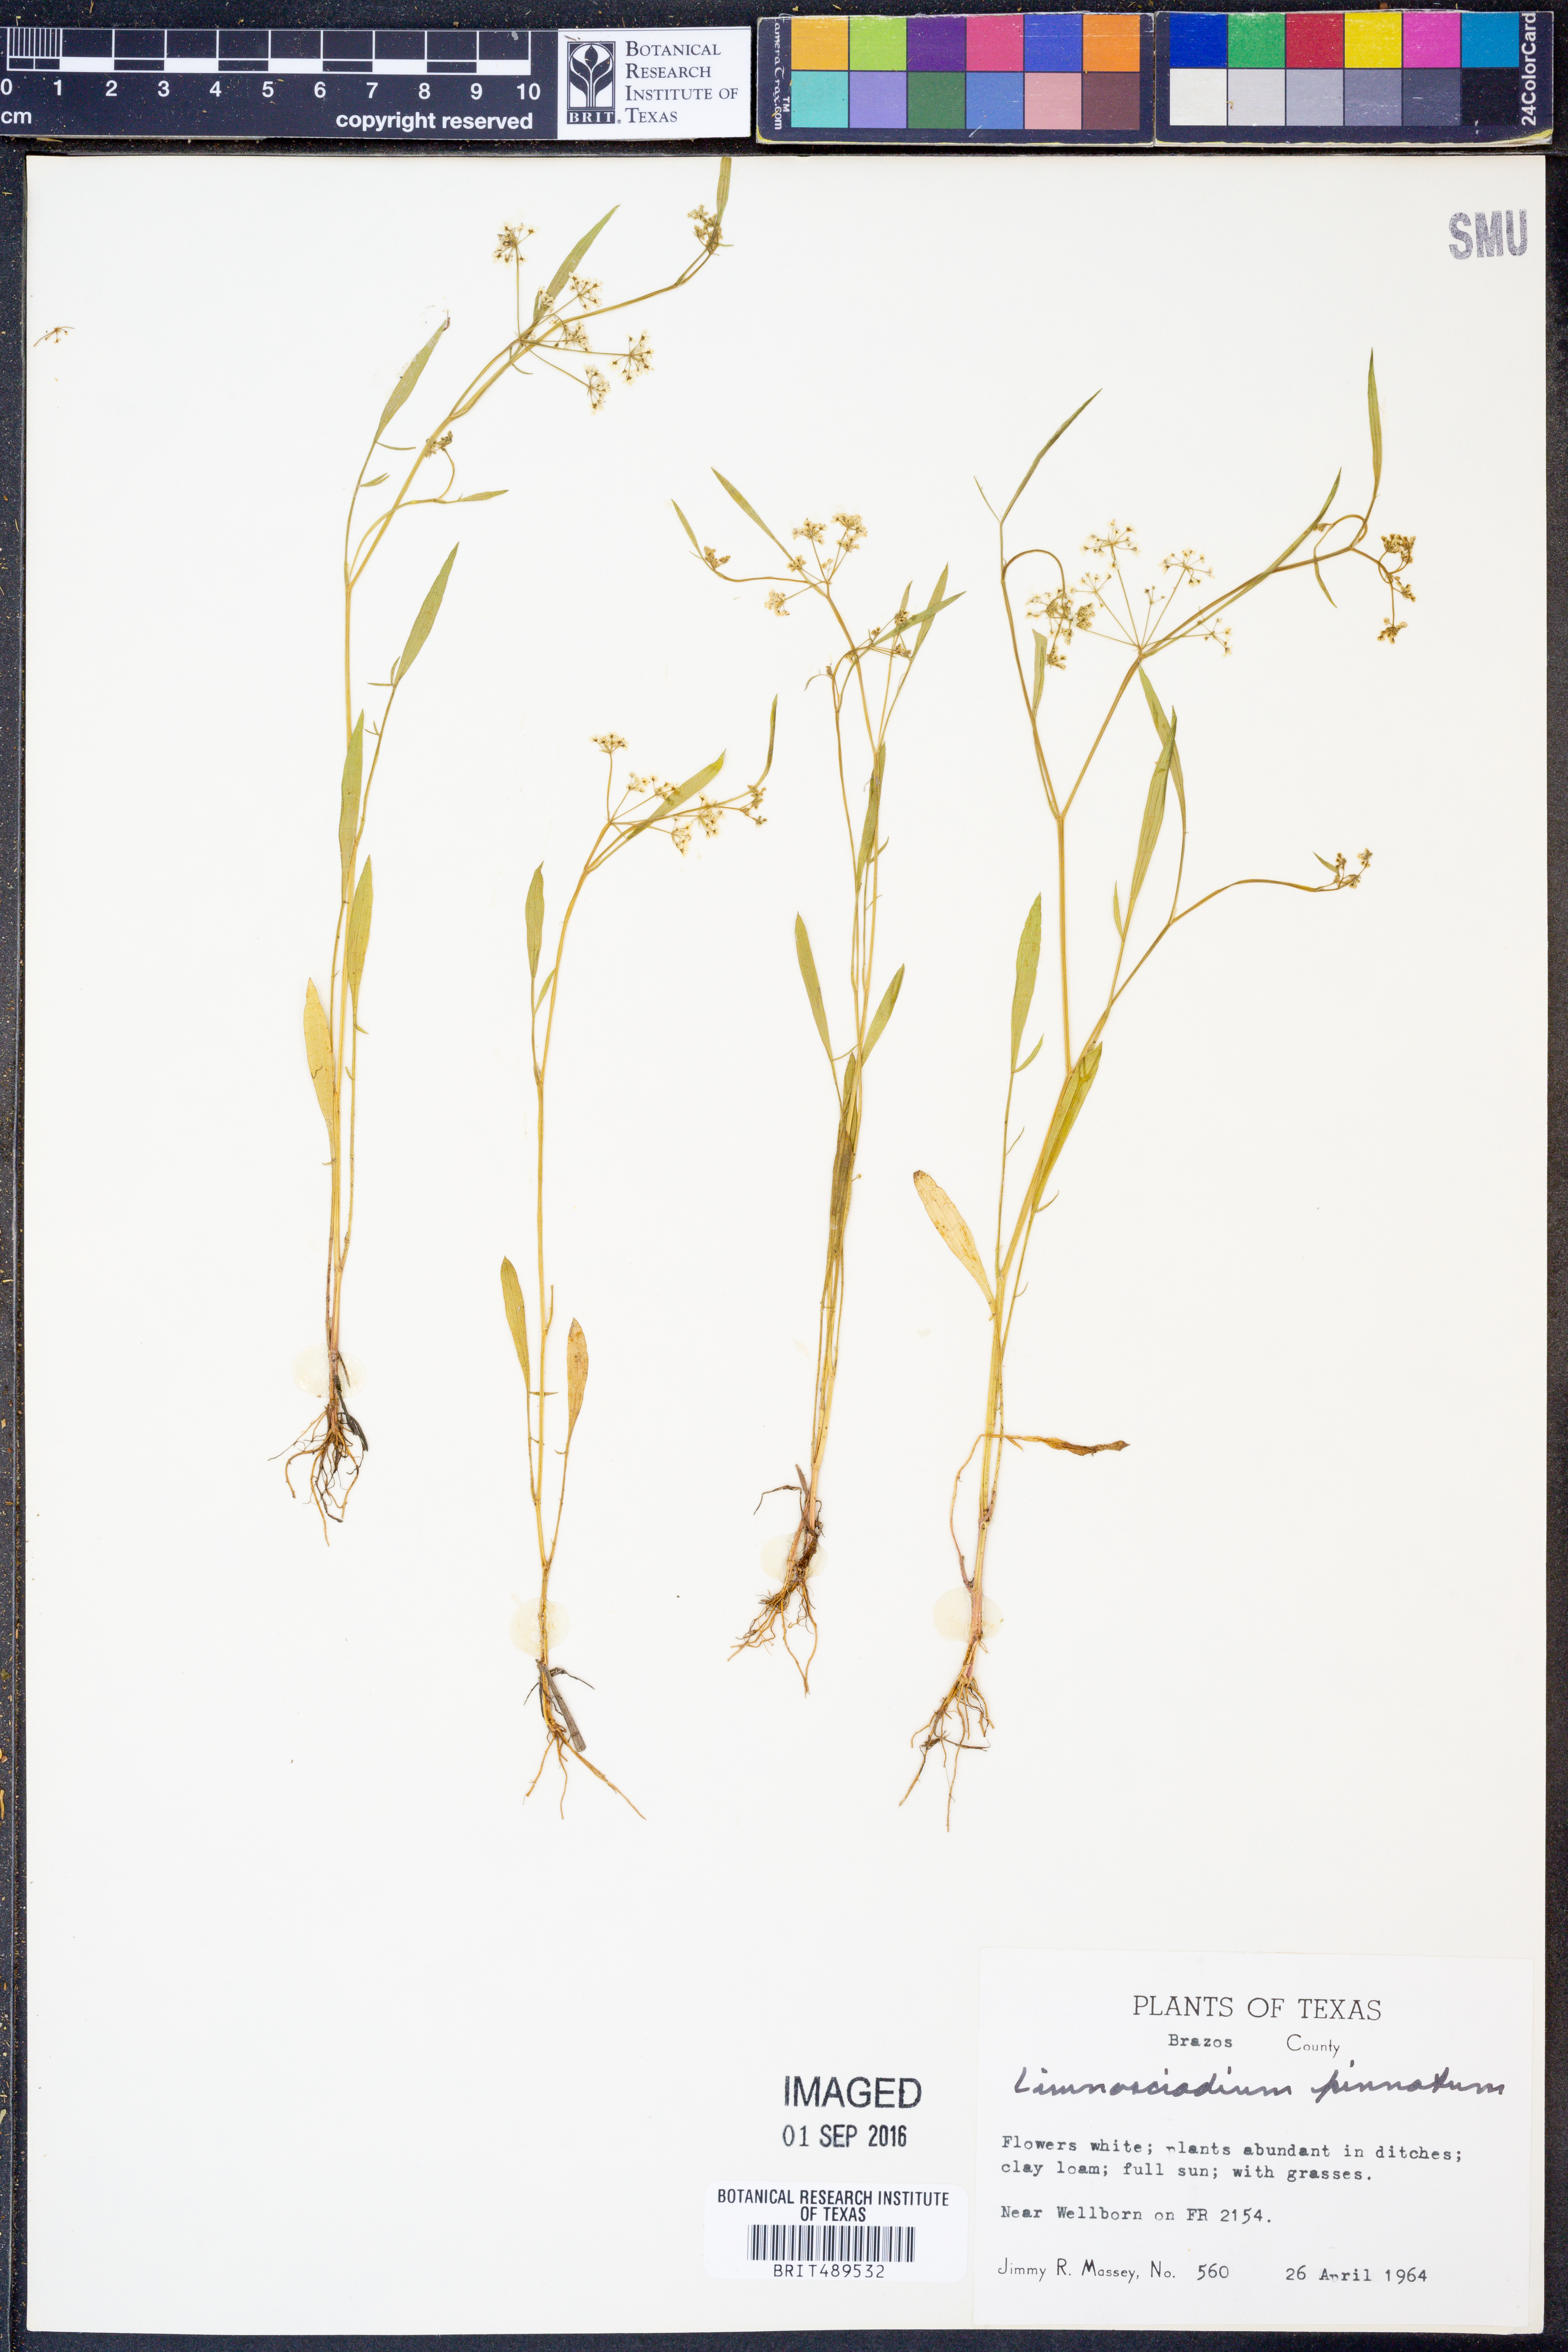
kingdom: Plantae
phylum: Tracheophyta
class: Magnoliopsida
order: Apiales
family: Apiaceae
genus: Limnosciadium
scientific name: Limnosciadium pinnatum
